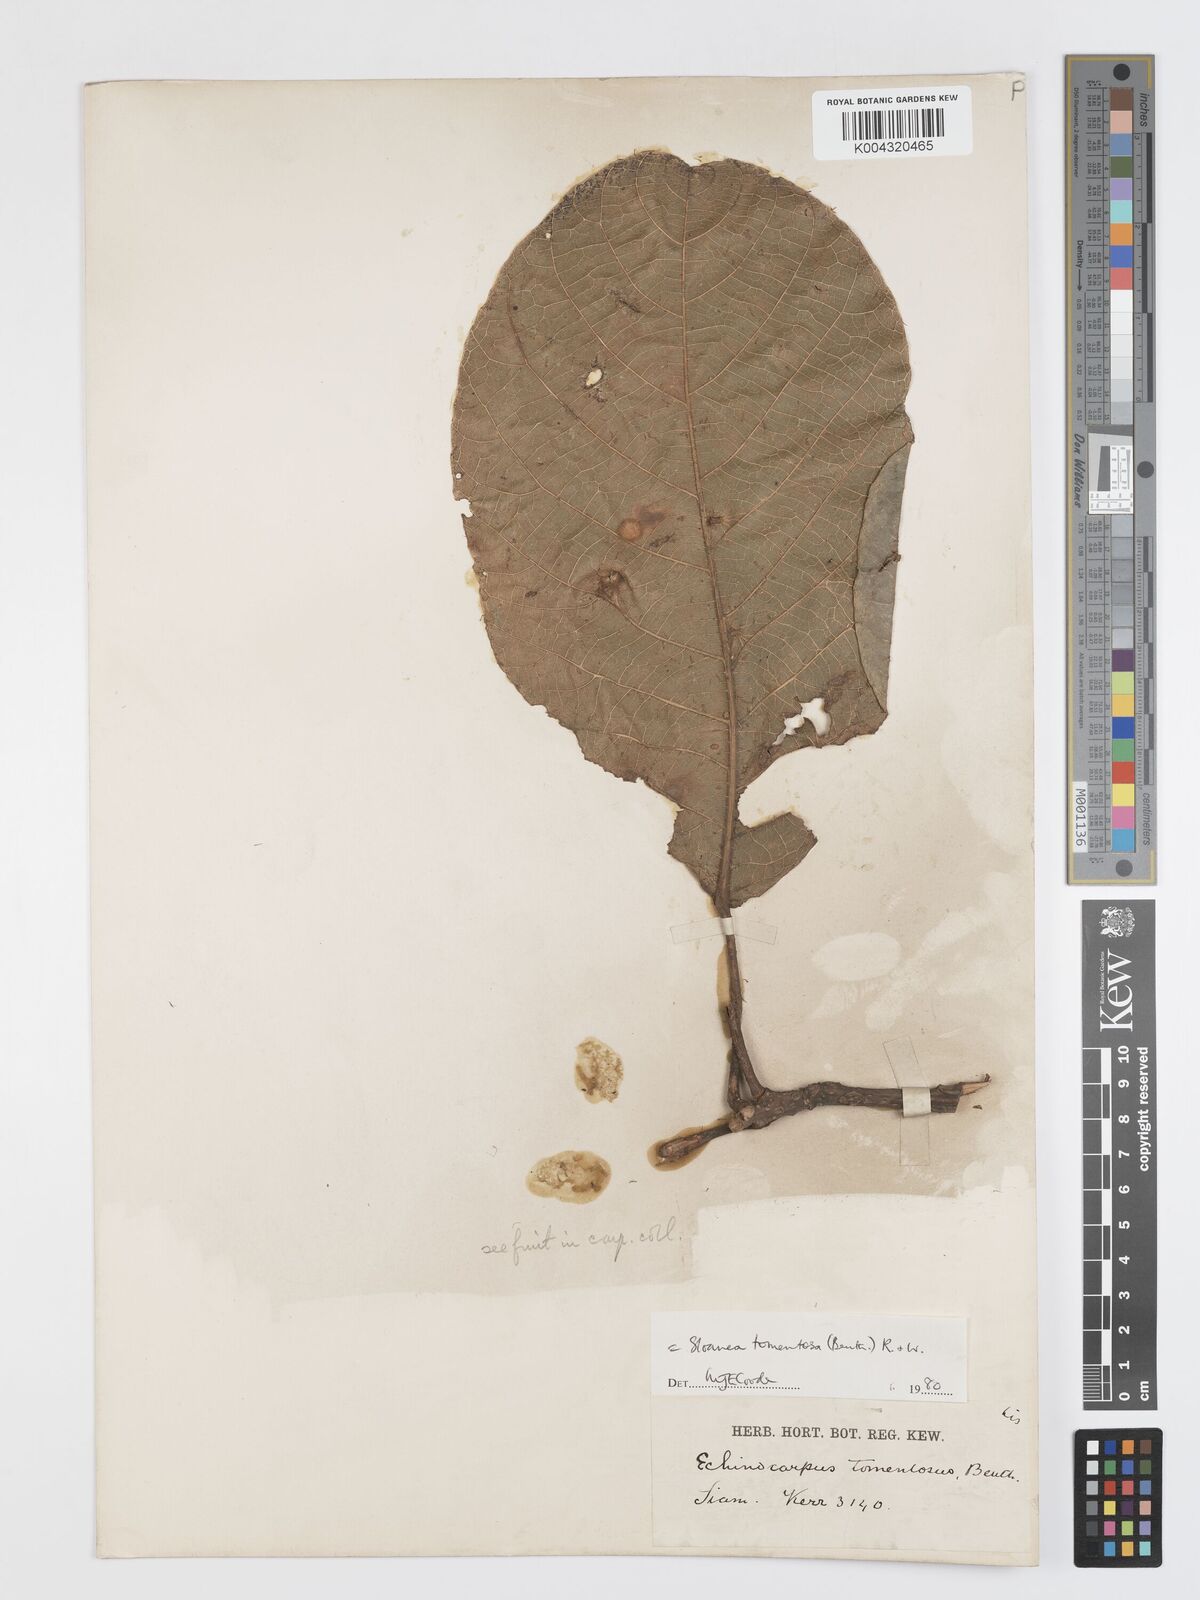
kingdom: Plantae
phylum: Tracheophyta
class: Magnoliopsida
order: Oxalidales
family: Elaeocarpaceae
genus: Sloanea
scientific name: Sloanea tomentosa
